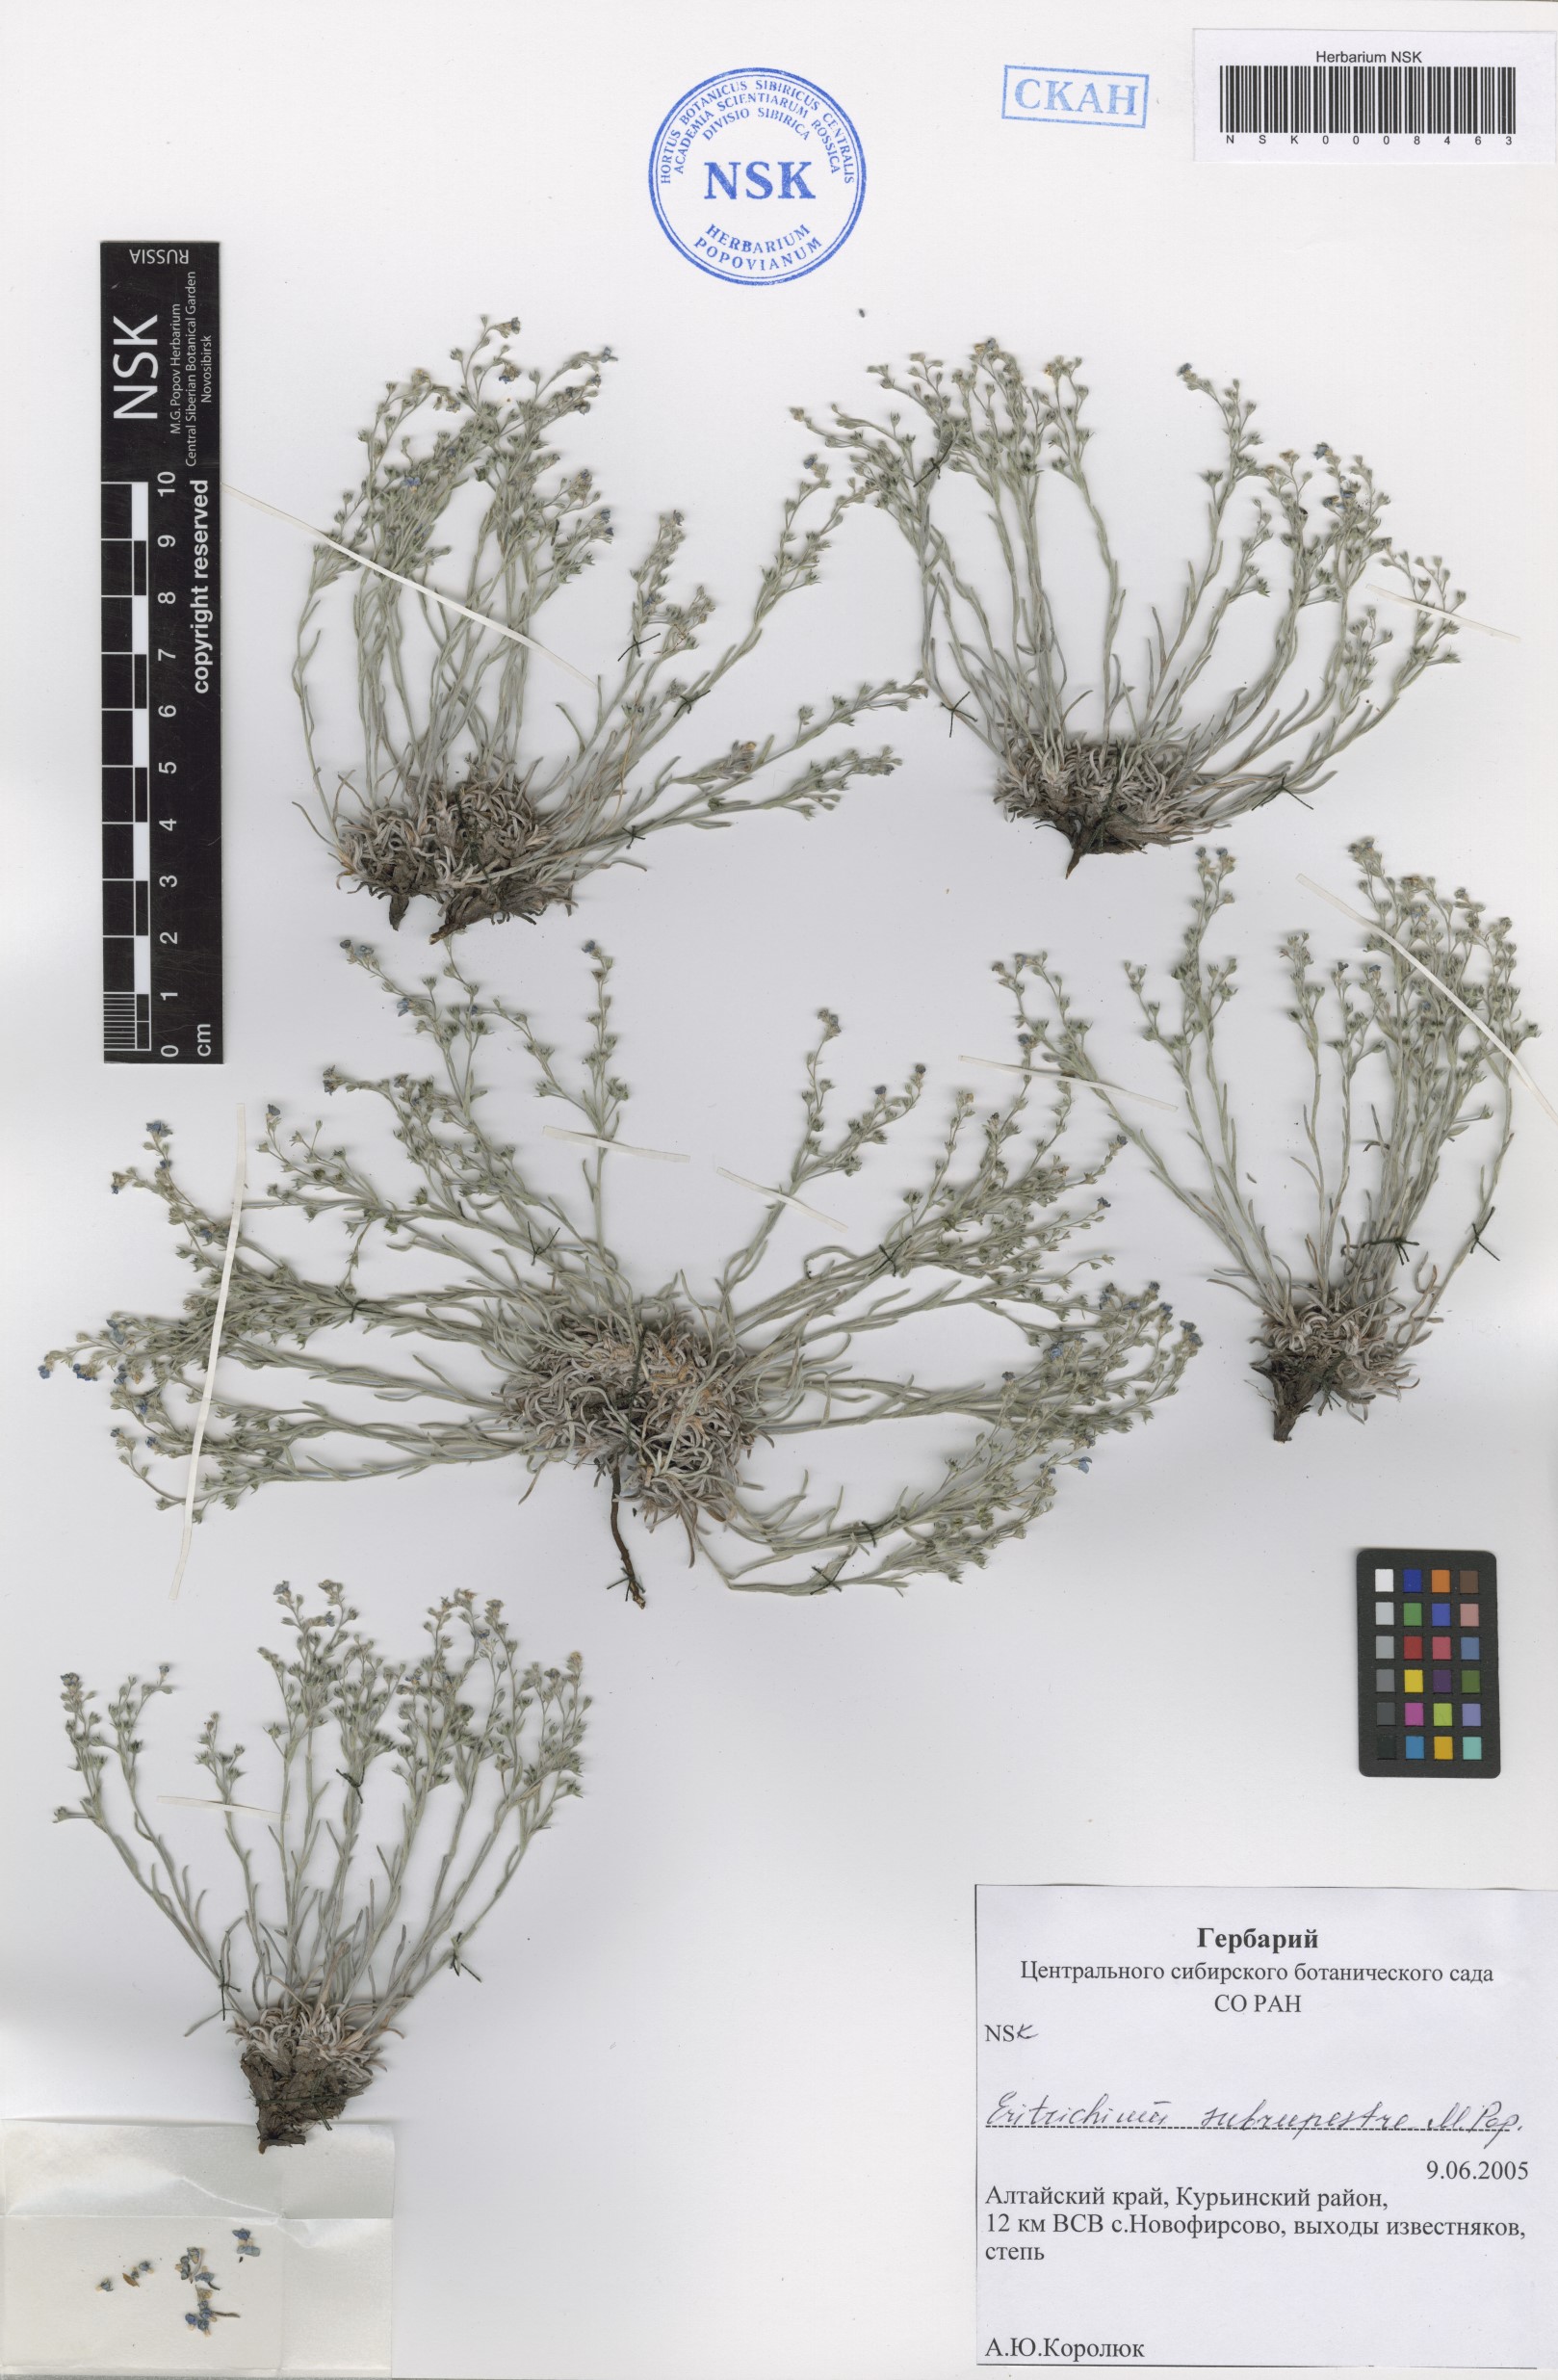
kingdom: Plantae
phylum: Tracheophyta
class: Magnoliopsida
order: Boraginales
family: Boraginaceae
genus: Eritrichium
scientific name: Eritrichium pauciflorum
